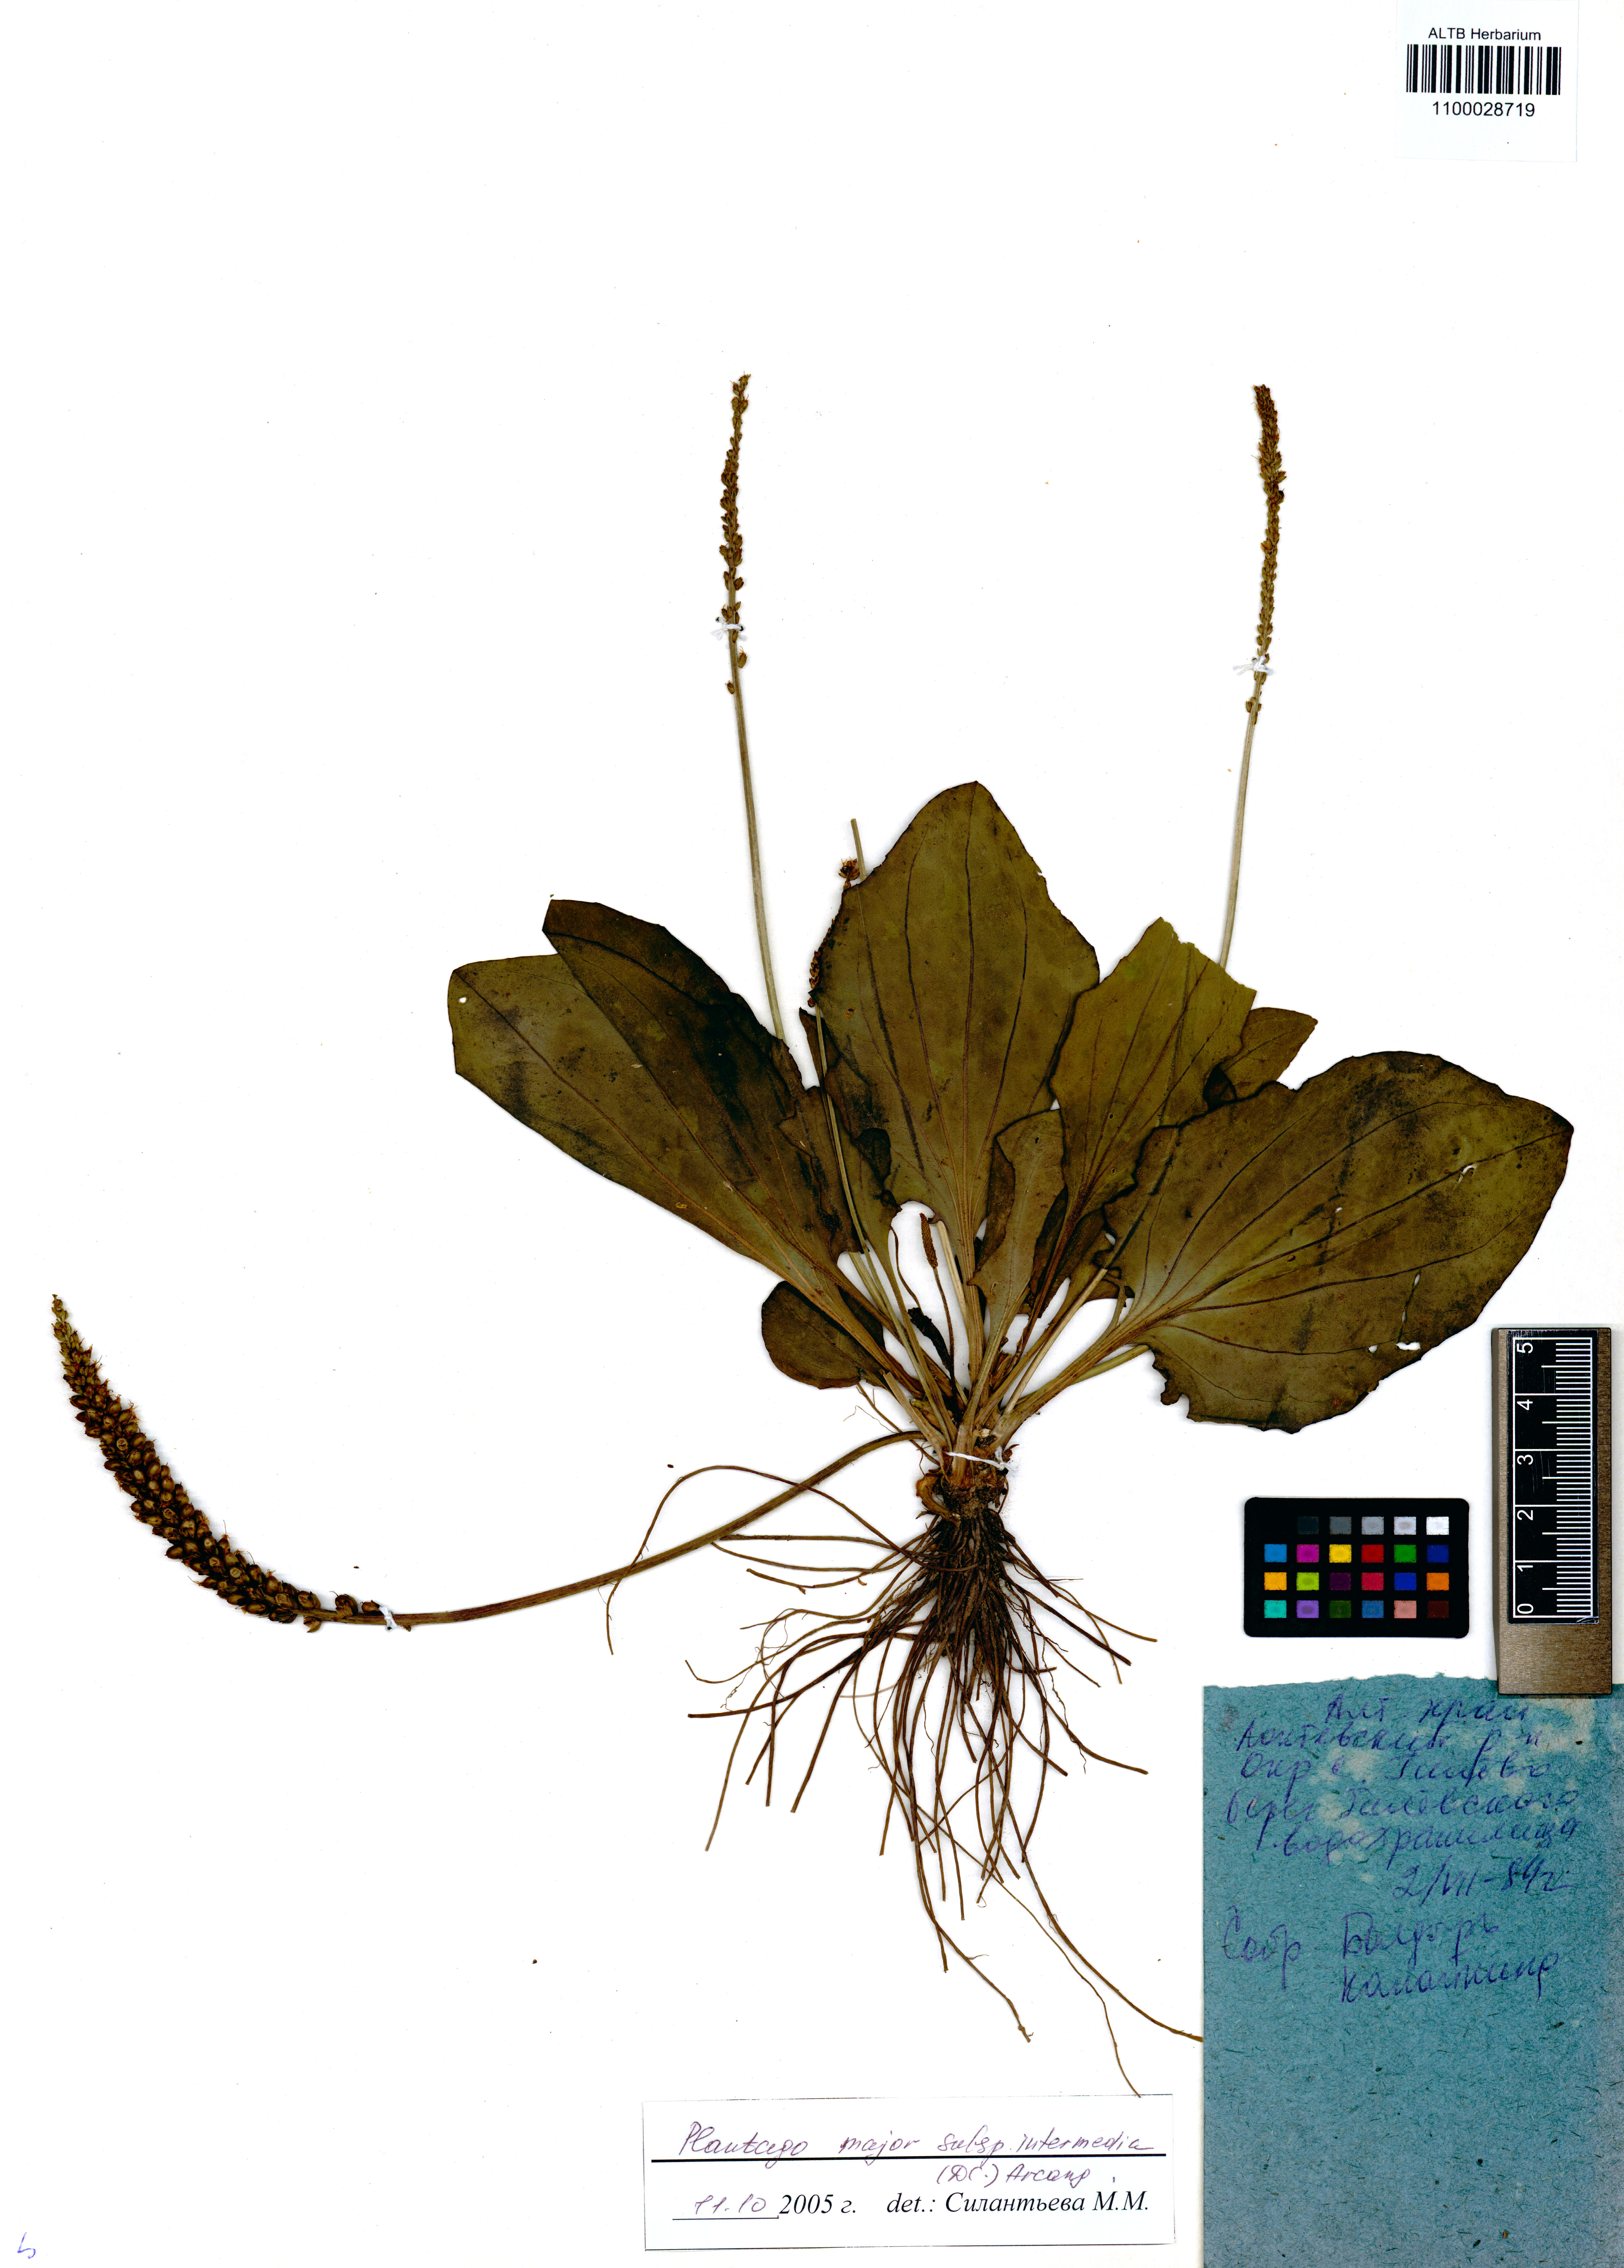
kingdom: Plantae
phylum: Tracheophyta
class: Magnoliopsida
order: Lamiales
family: Plantaginaceae
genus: Plantago
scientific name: Plantago uliginosa
